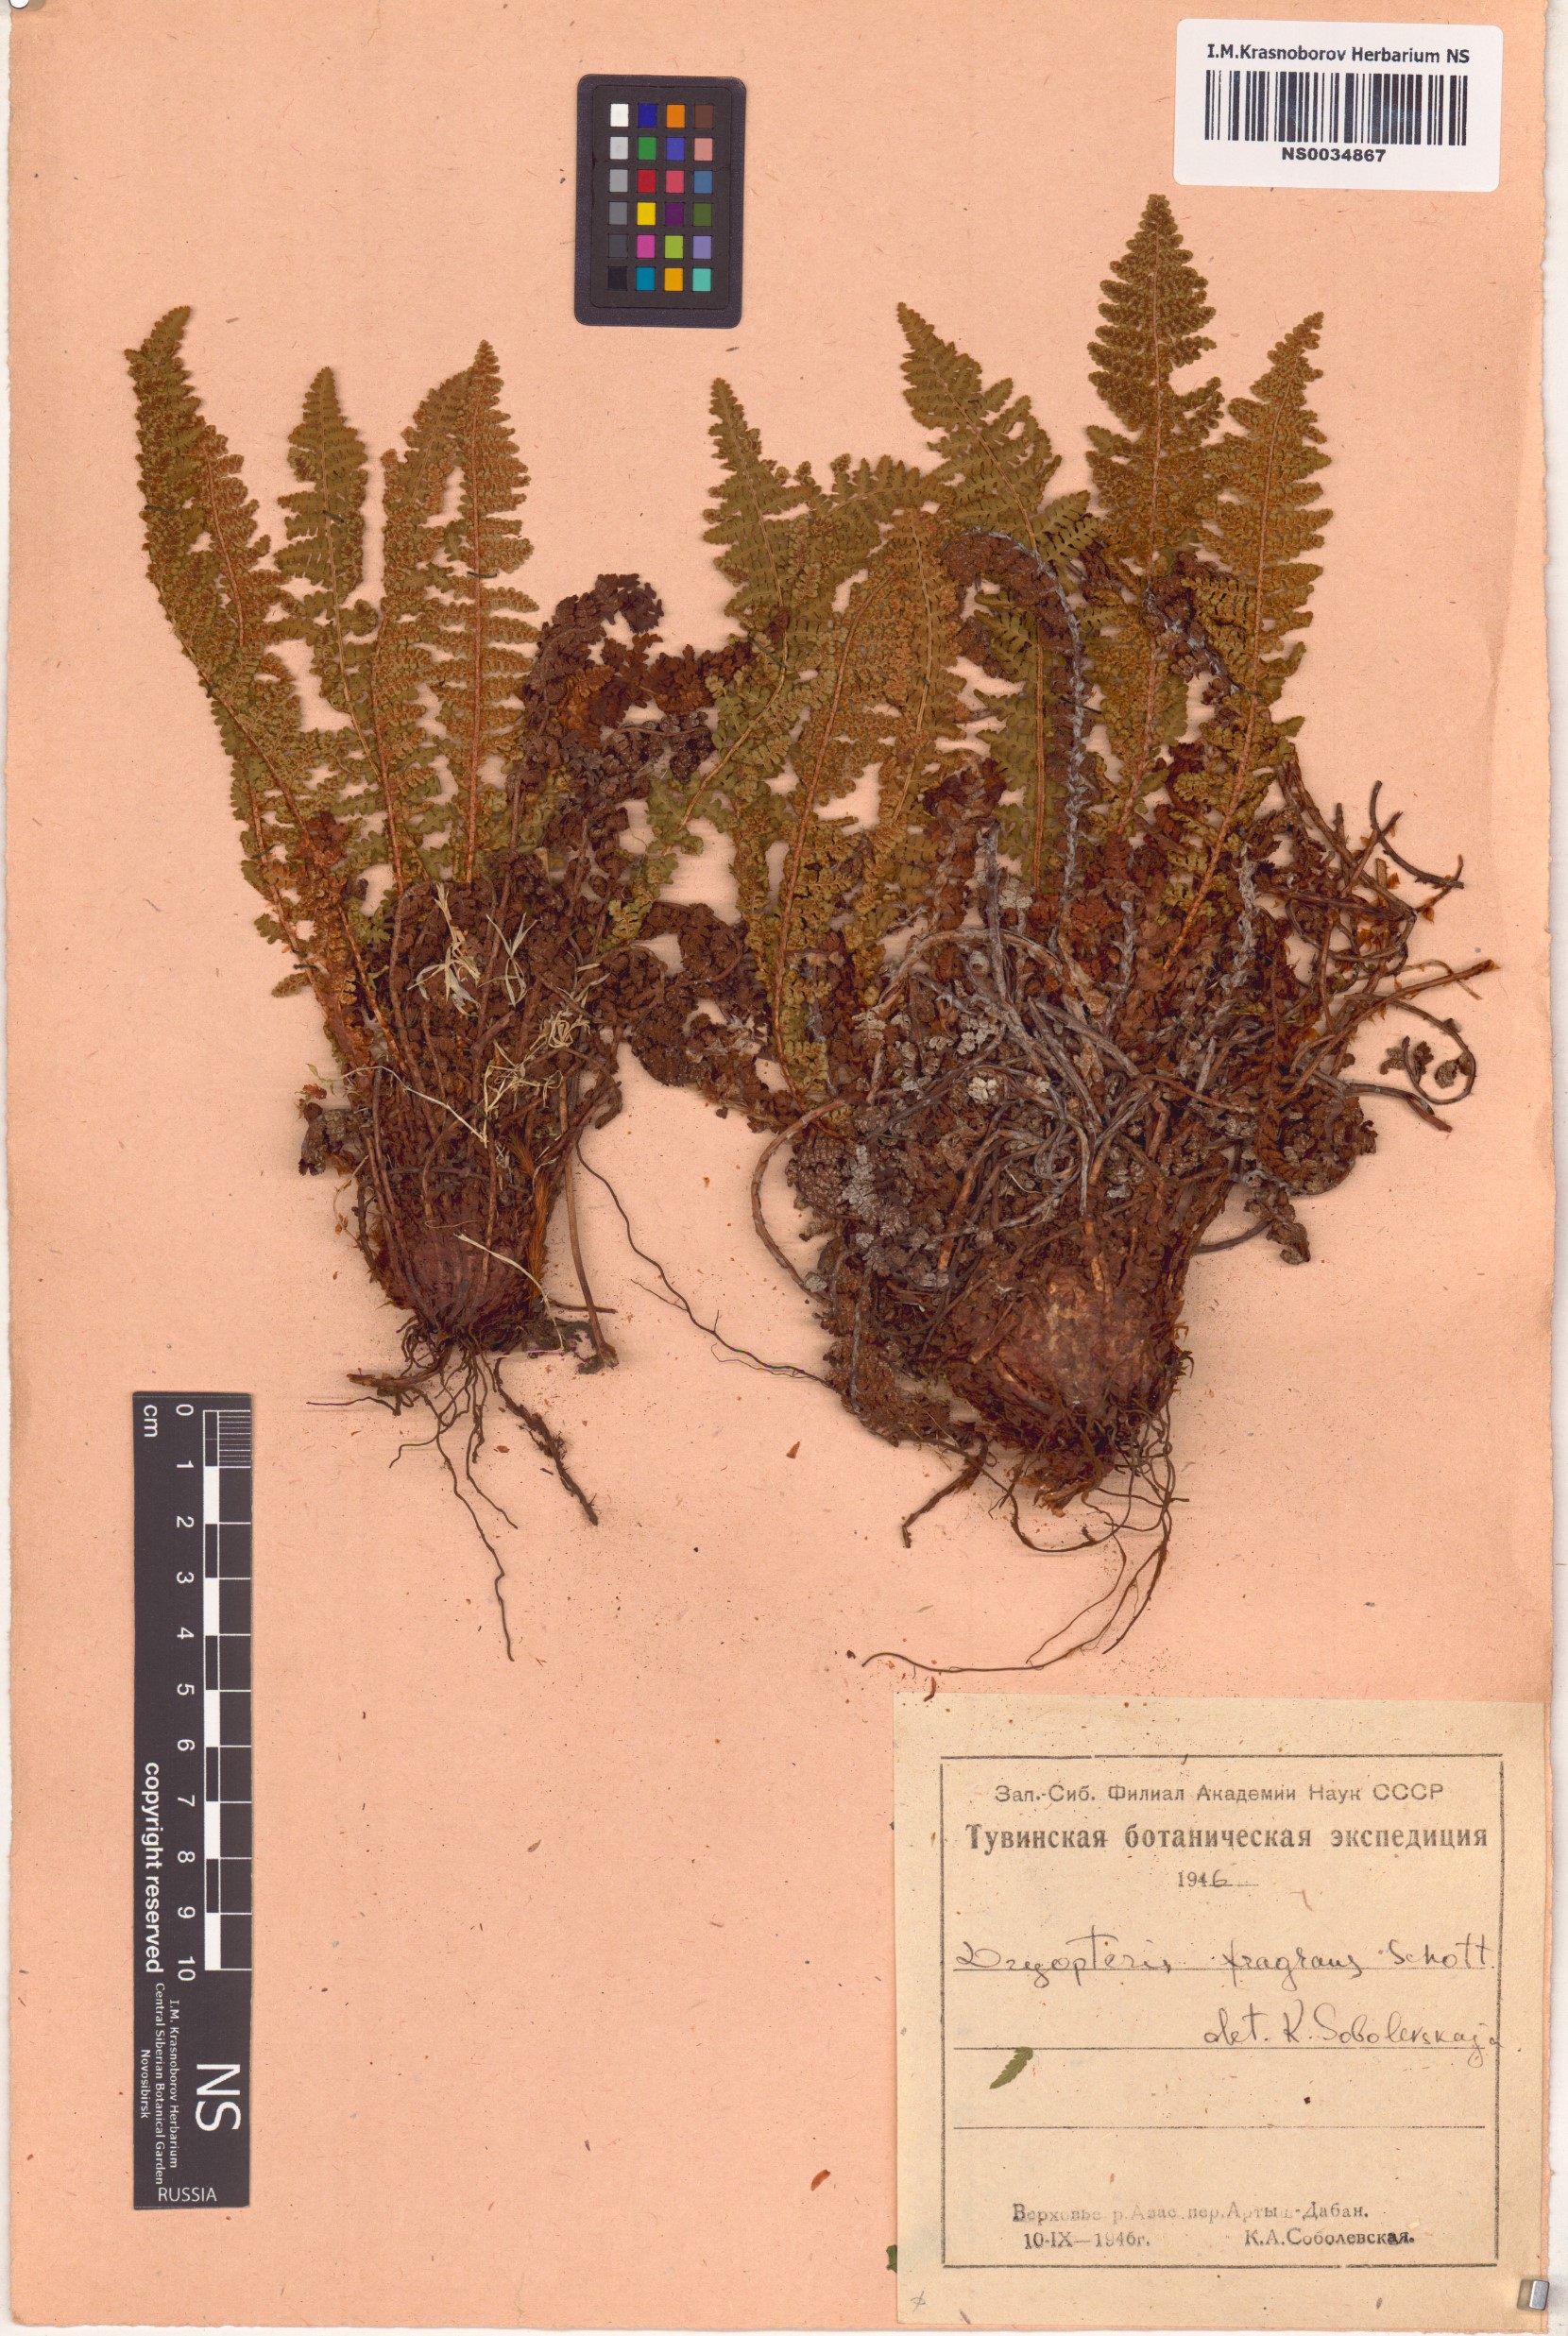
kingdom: Plantae
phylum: Tracheophyta
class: Polypodiopsida
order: Polypodiales
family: Dryopteridaceae
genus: Dryopteris
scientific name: Dryopteris fragrans
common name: Fragrant wood fern
